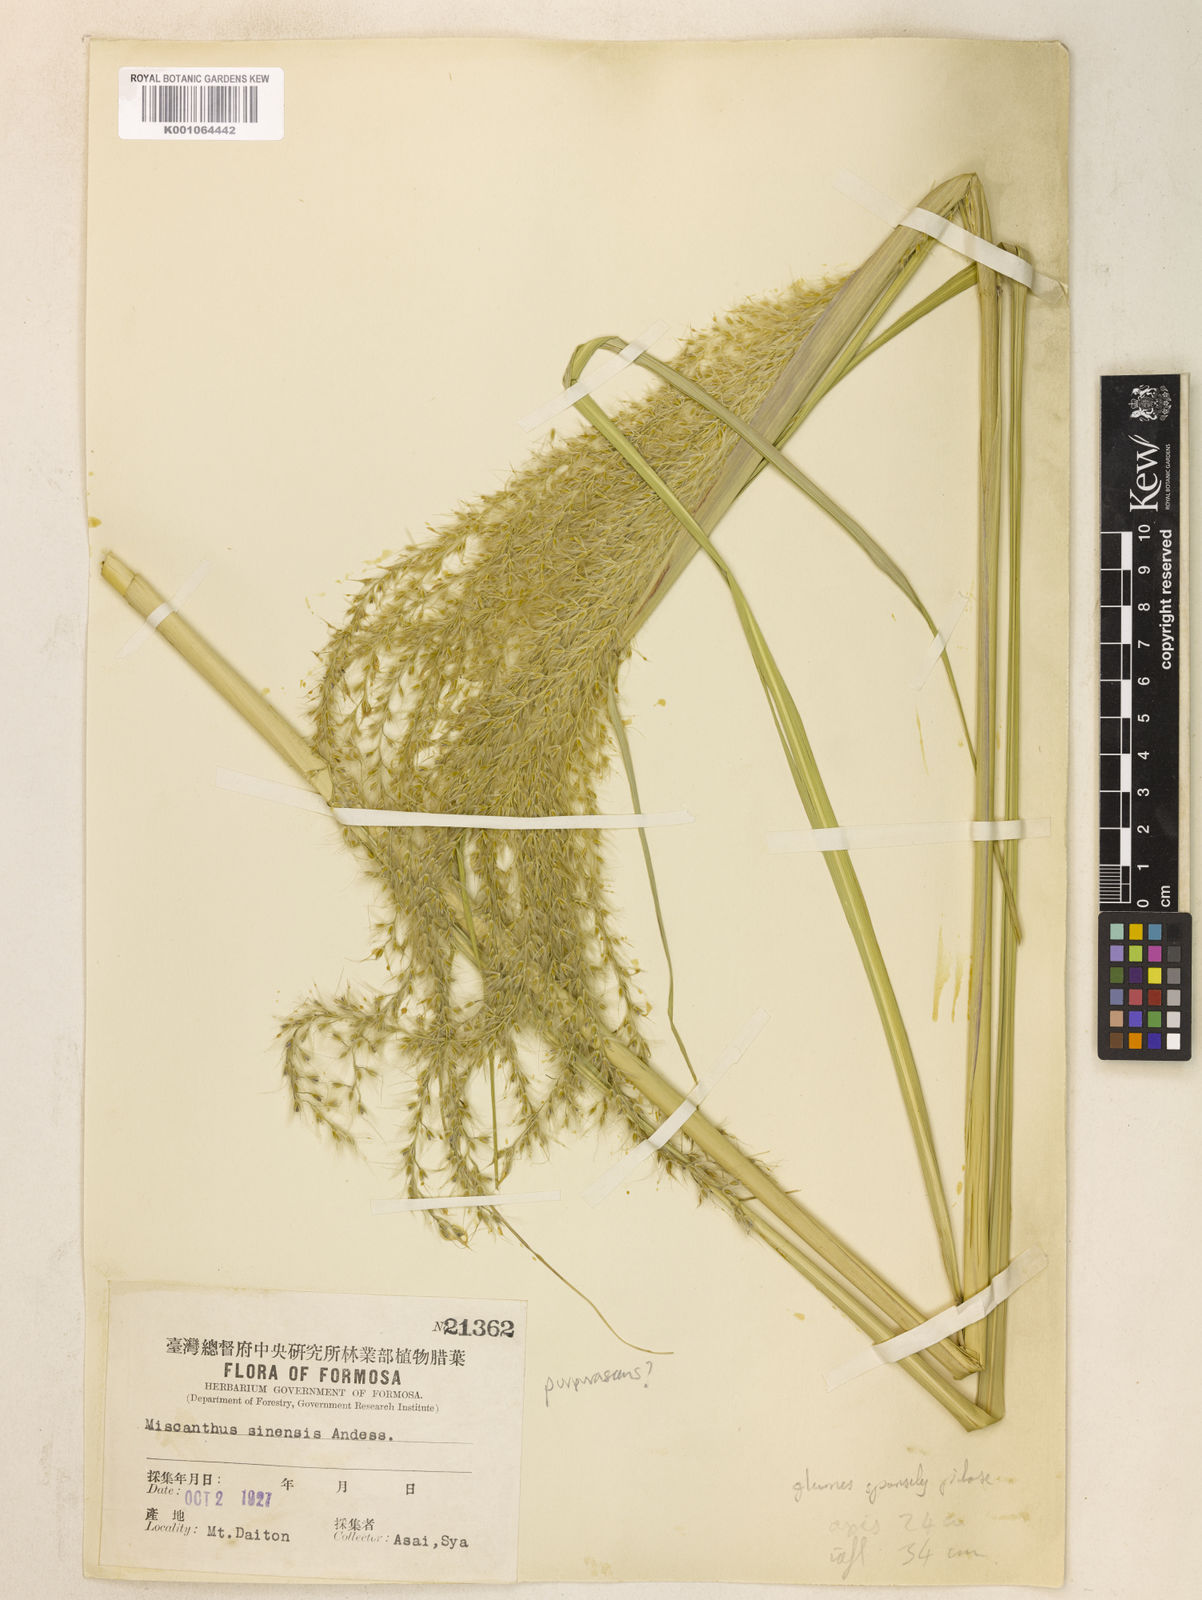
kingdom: Plantae
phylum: Tracheophyta
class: Liliopsida
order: Poales
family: Poaceae
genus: Miscanthus
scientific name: Miscanthus sinensis
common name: Chinese silvergrass
